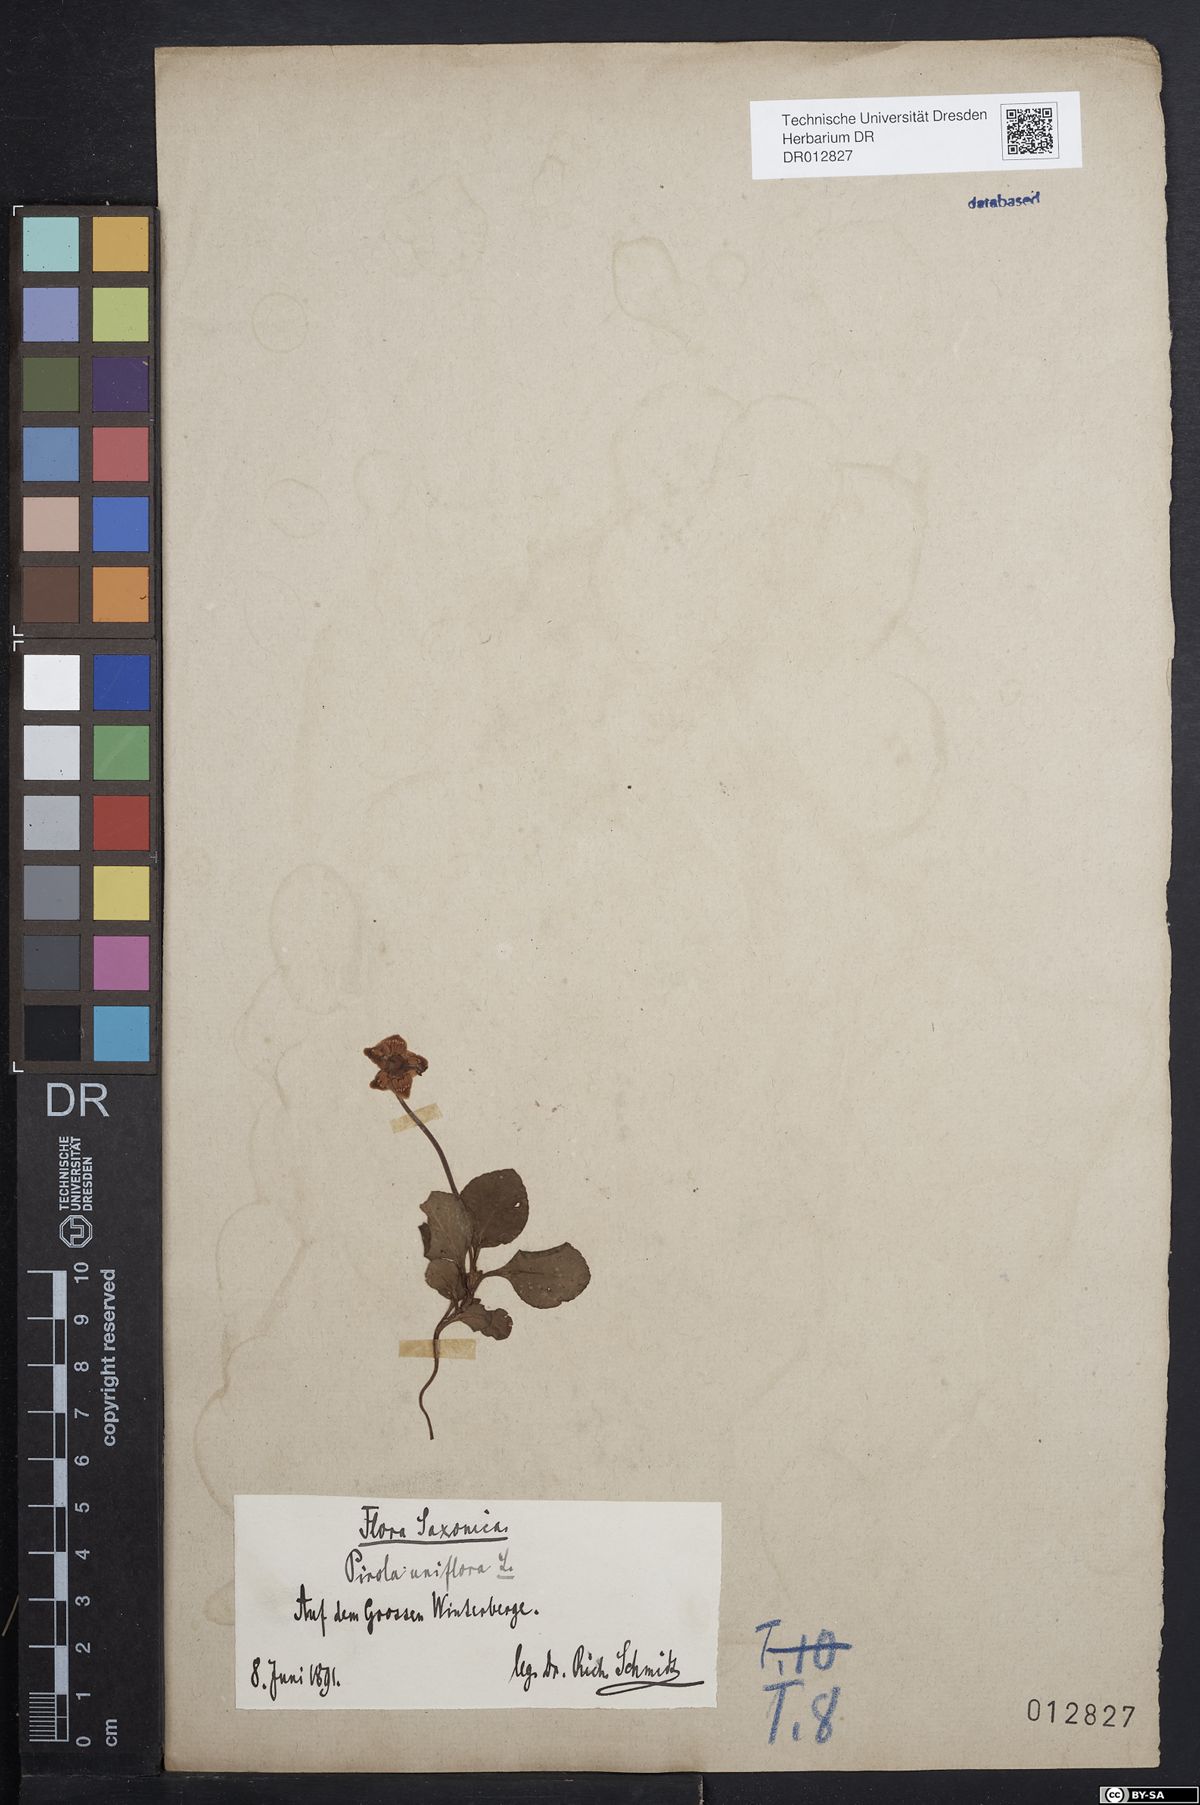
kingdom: Plantae
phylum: Tracheophyta
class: Magnoliopsida
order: Ericales
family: Ericaceae
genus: Moneses
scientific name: Moneses uniflora
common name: One-flowered wintergreen
